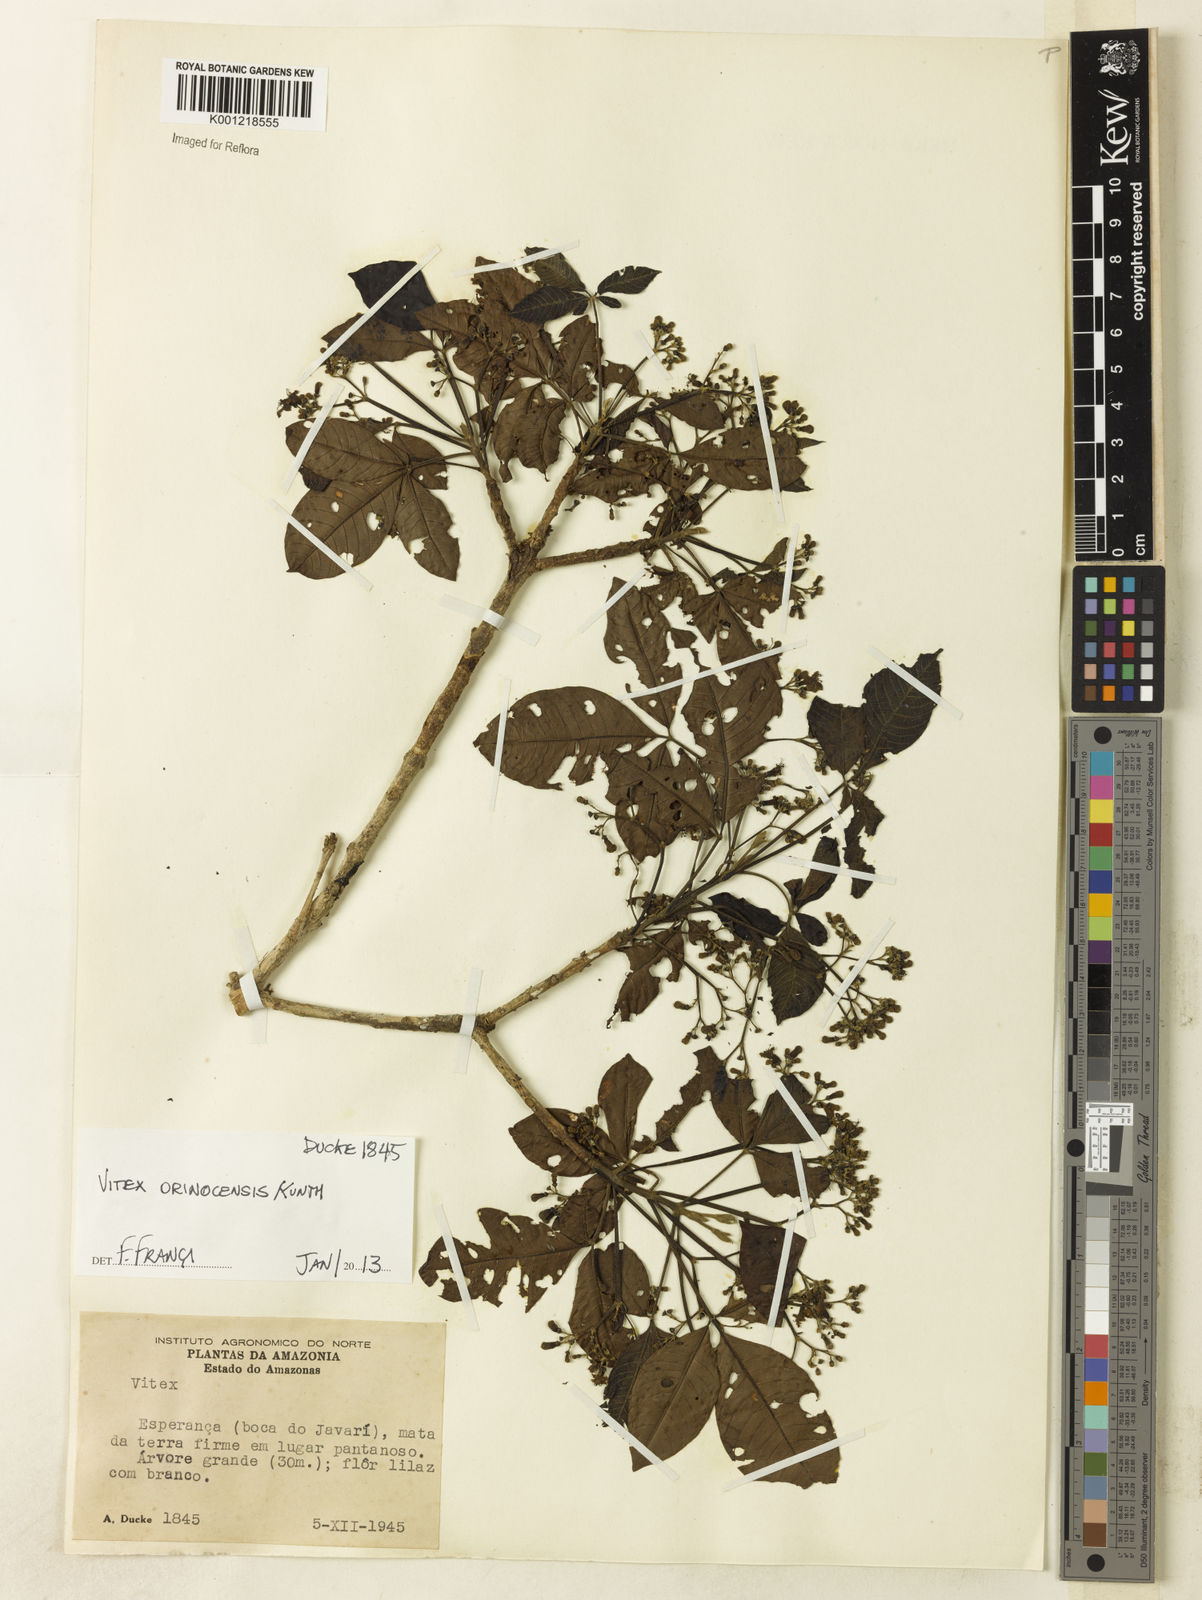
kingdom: Plantae
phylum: Tracheophyta
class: Magnoliopsida
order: Lamiales
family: Lamiaceae
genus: Vitex
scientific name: Vitex orinocensis
